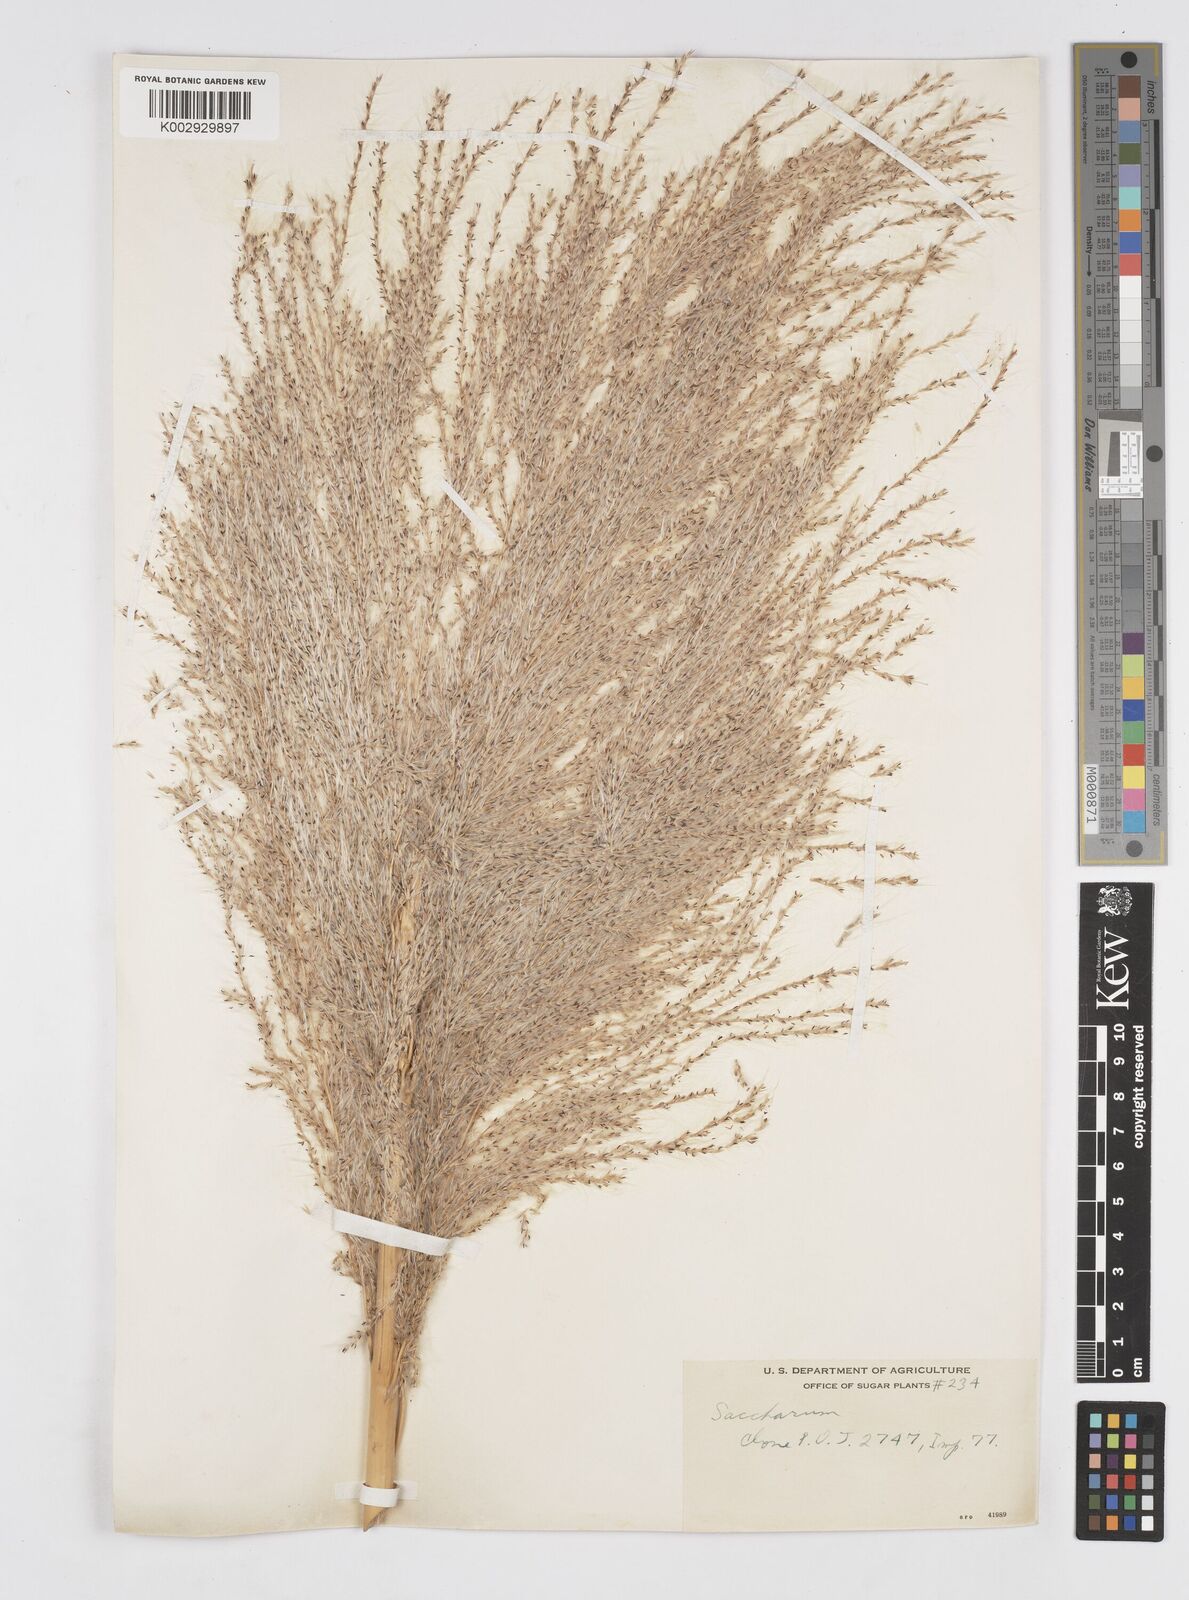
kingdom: Plantae
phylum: Tracheophyta
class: Liliopsida
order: Poales
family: Poaceae
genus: Saccharum
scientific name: Saccharum officinarum
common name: Sugarcane
